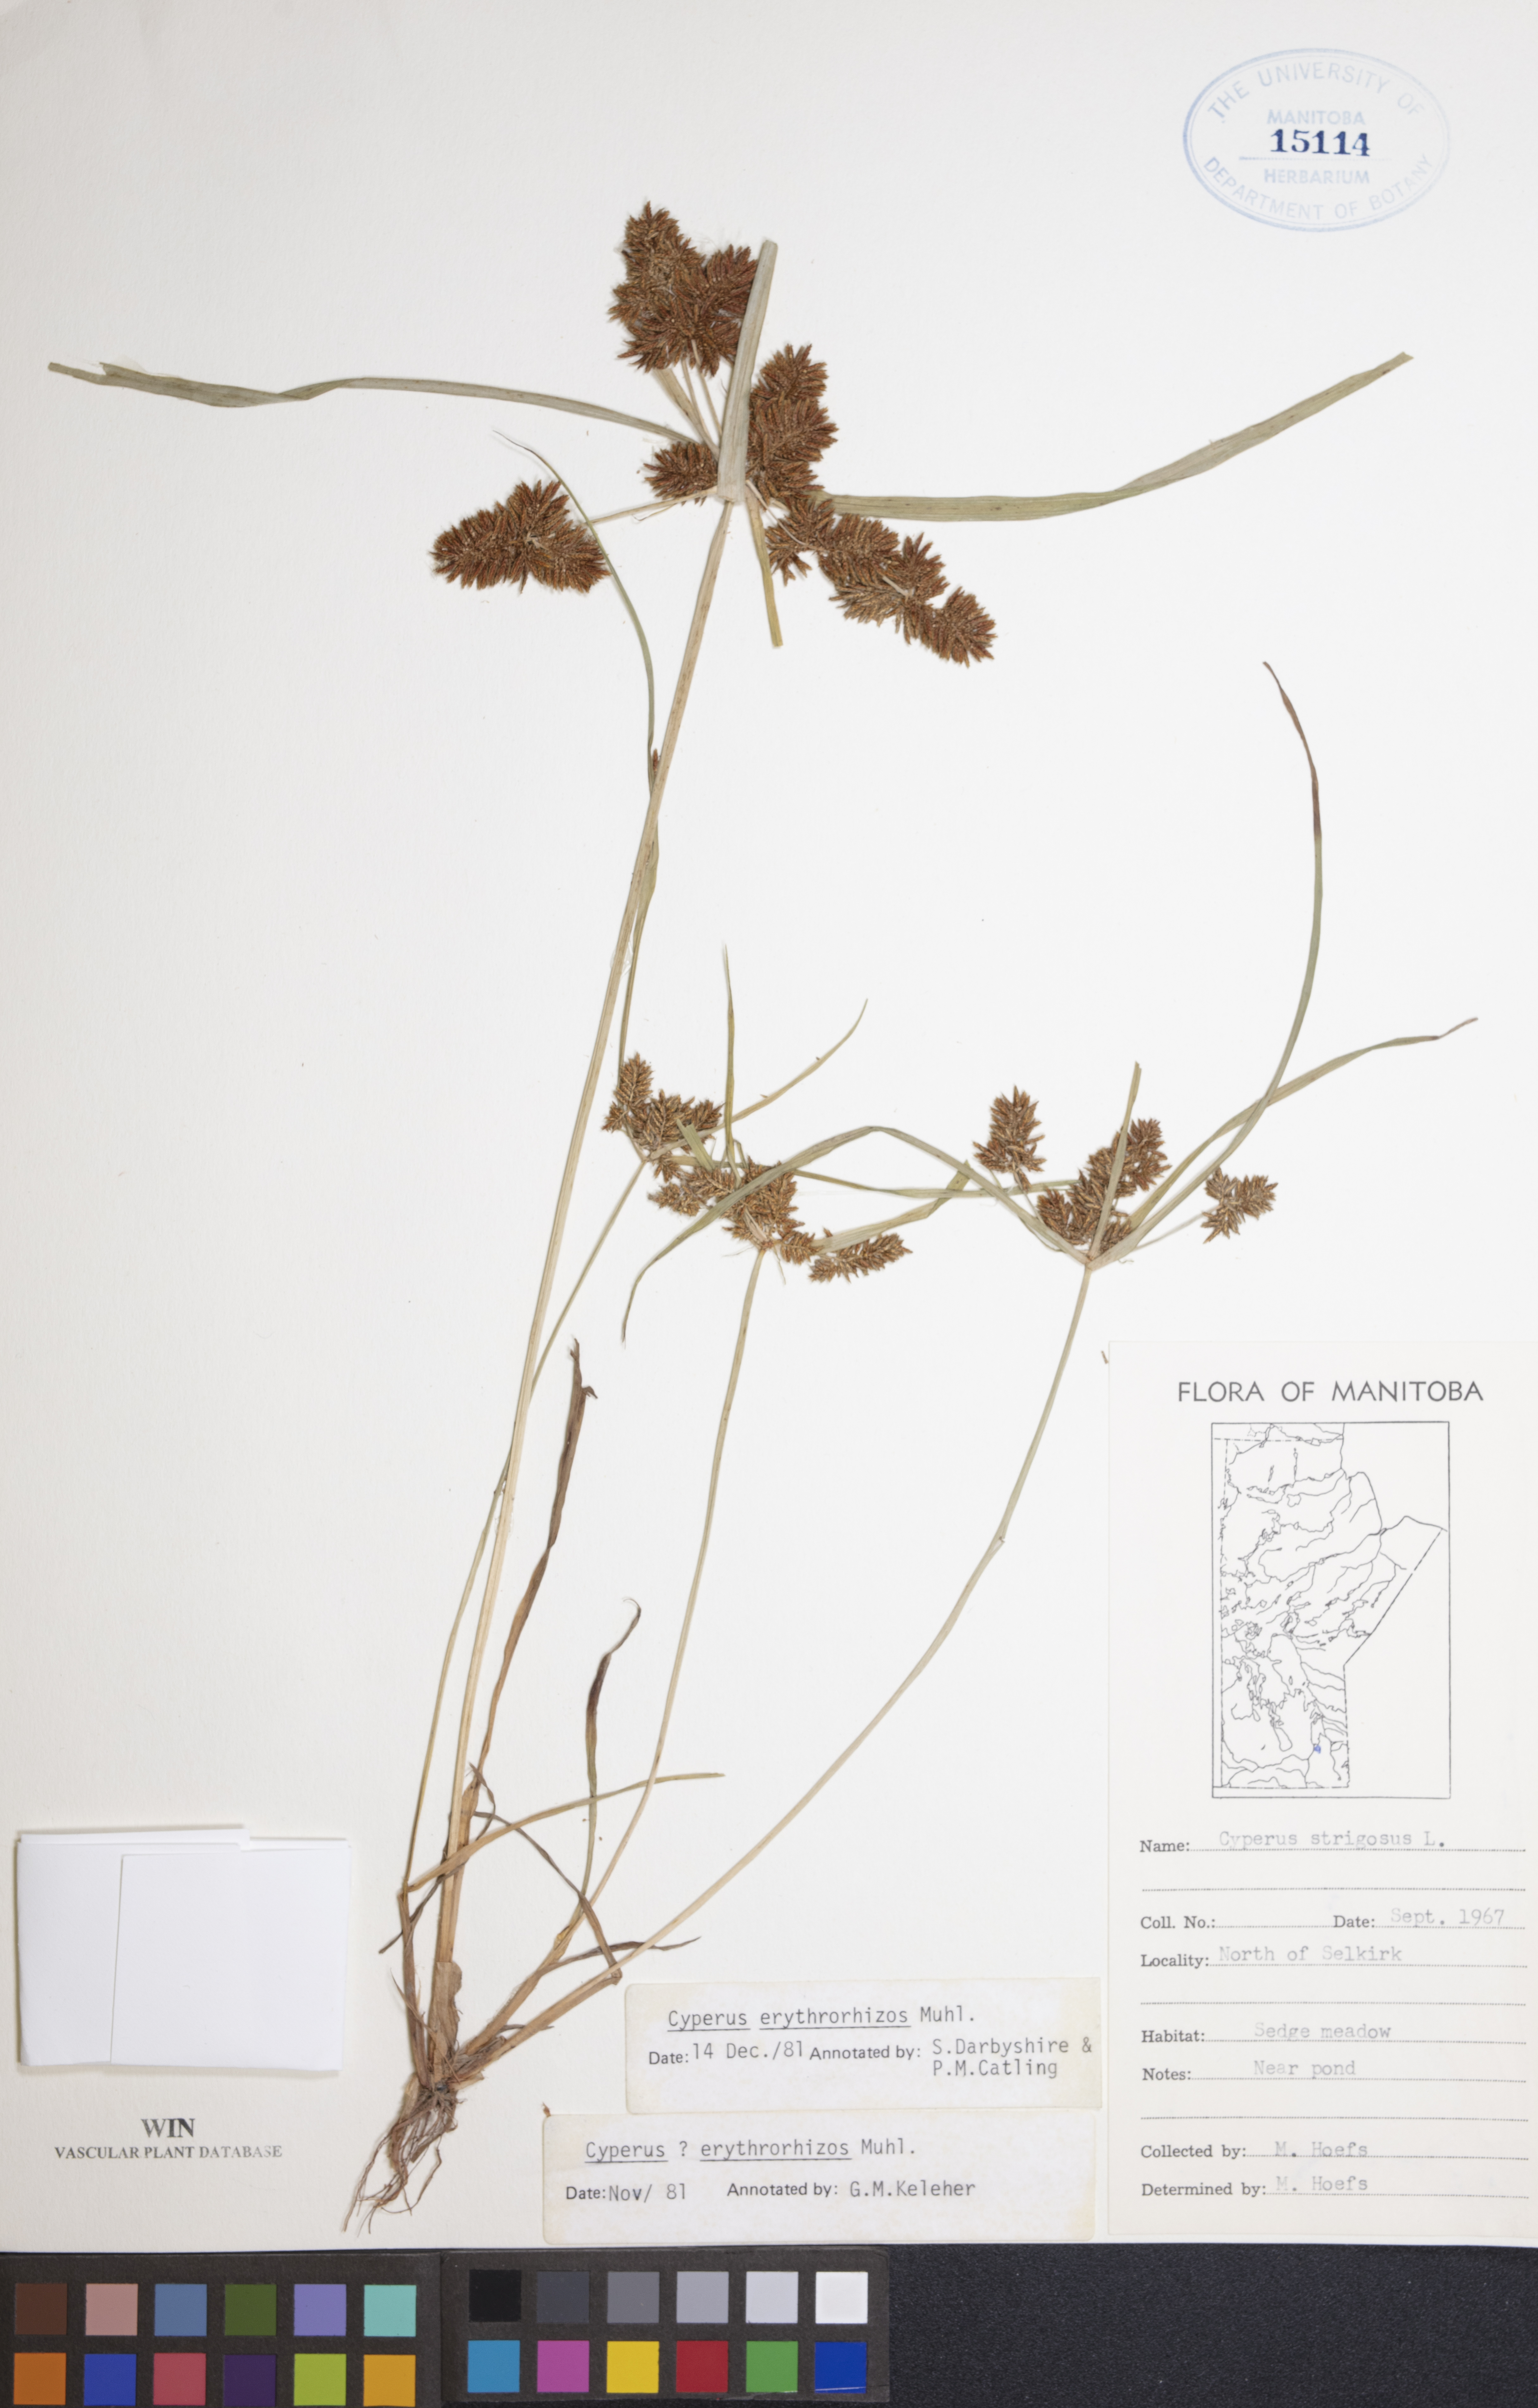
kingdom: Plantae
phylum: Tracheophyta
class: Liliopsida
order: Poales
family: Cyperaceae
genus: Cyperus
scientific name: Cyperus erythrorhizos
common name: Red-root flat sedge
